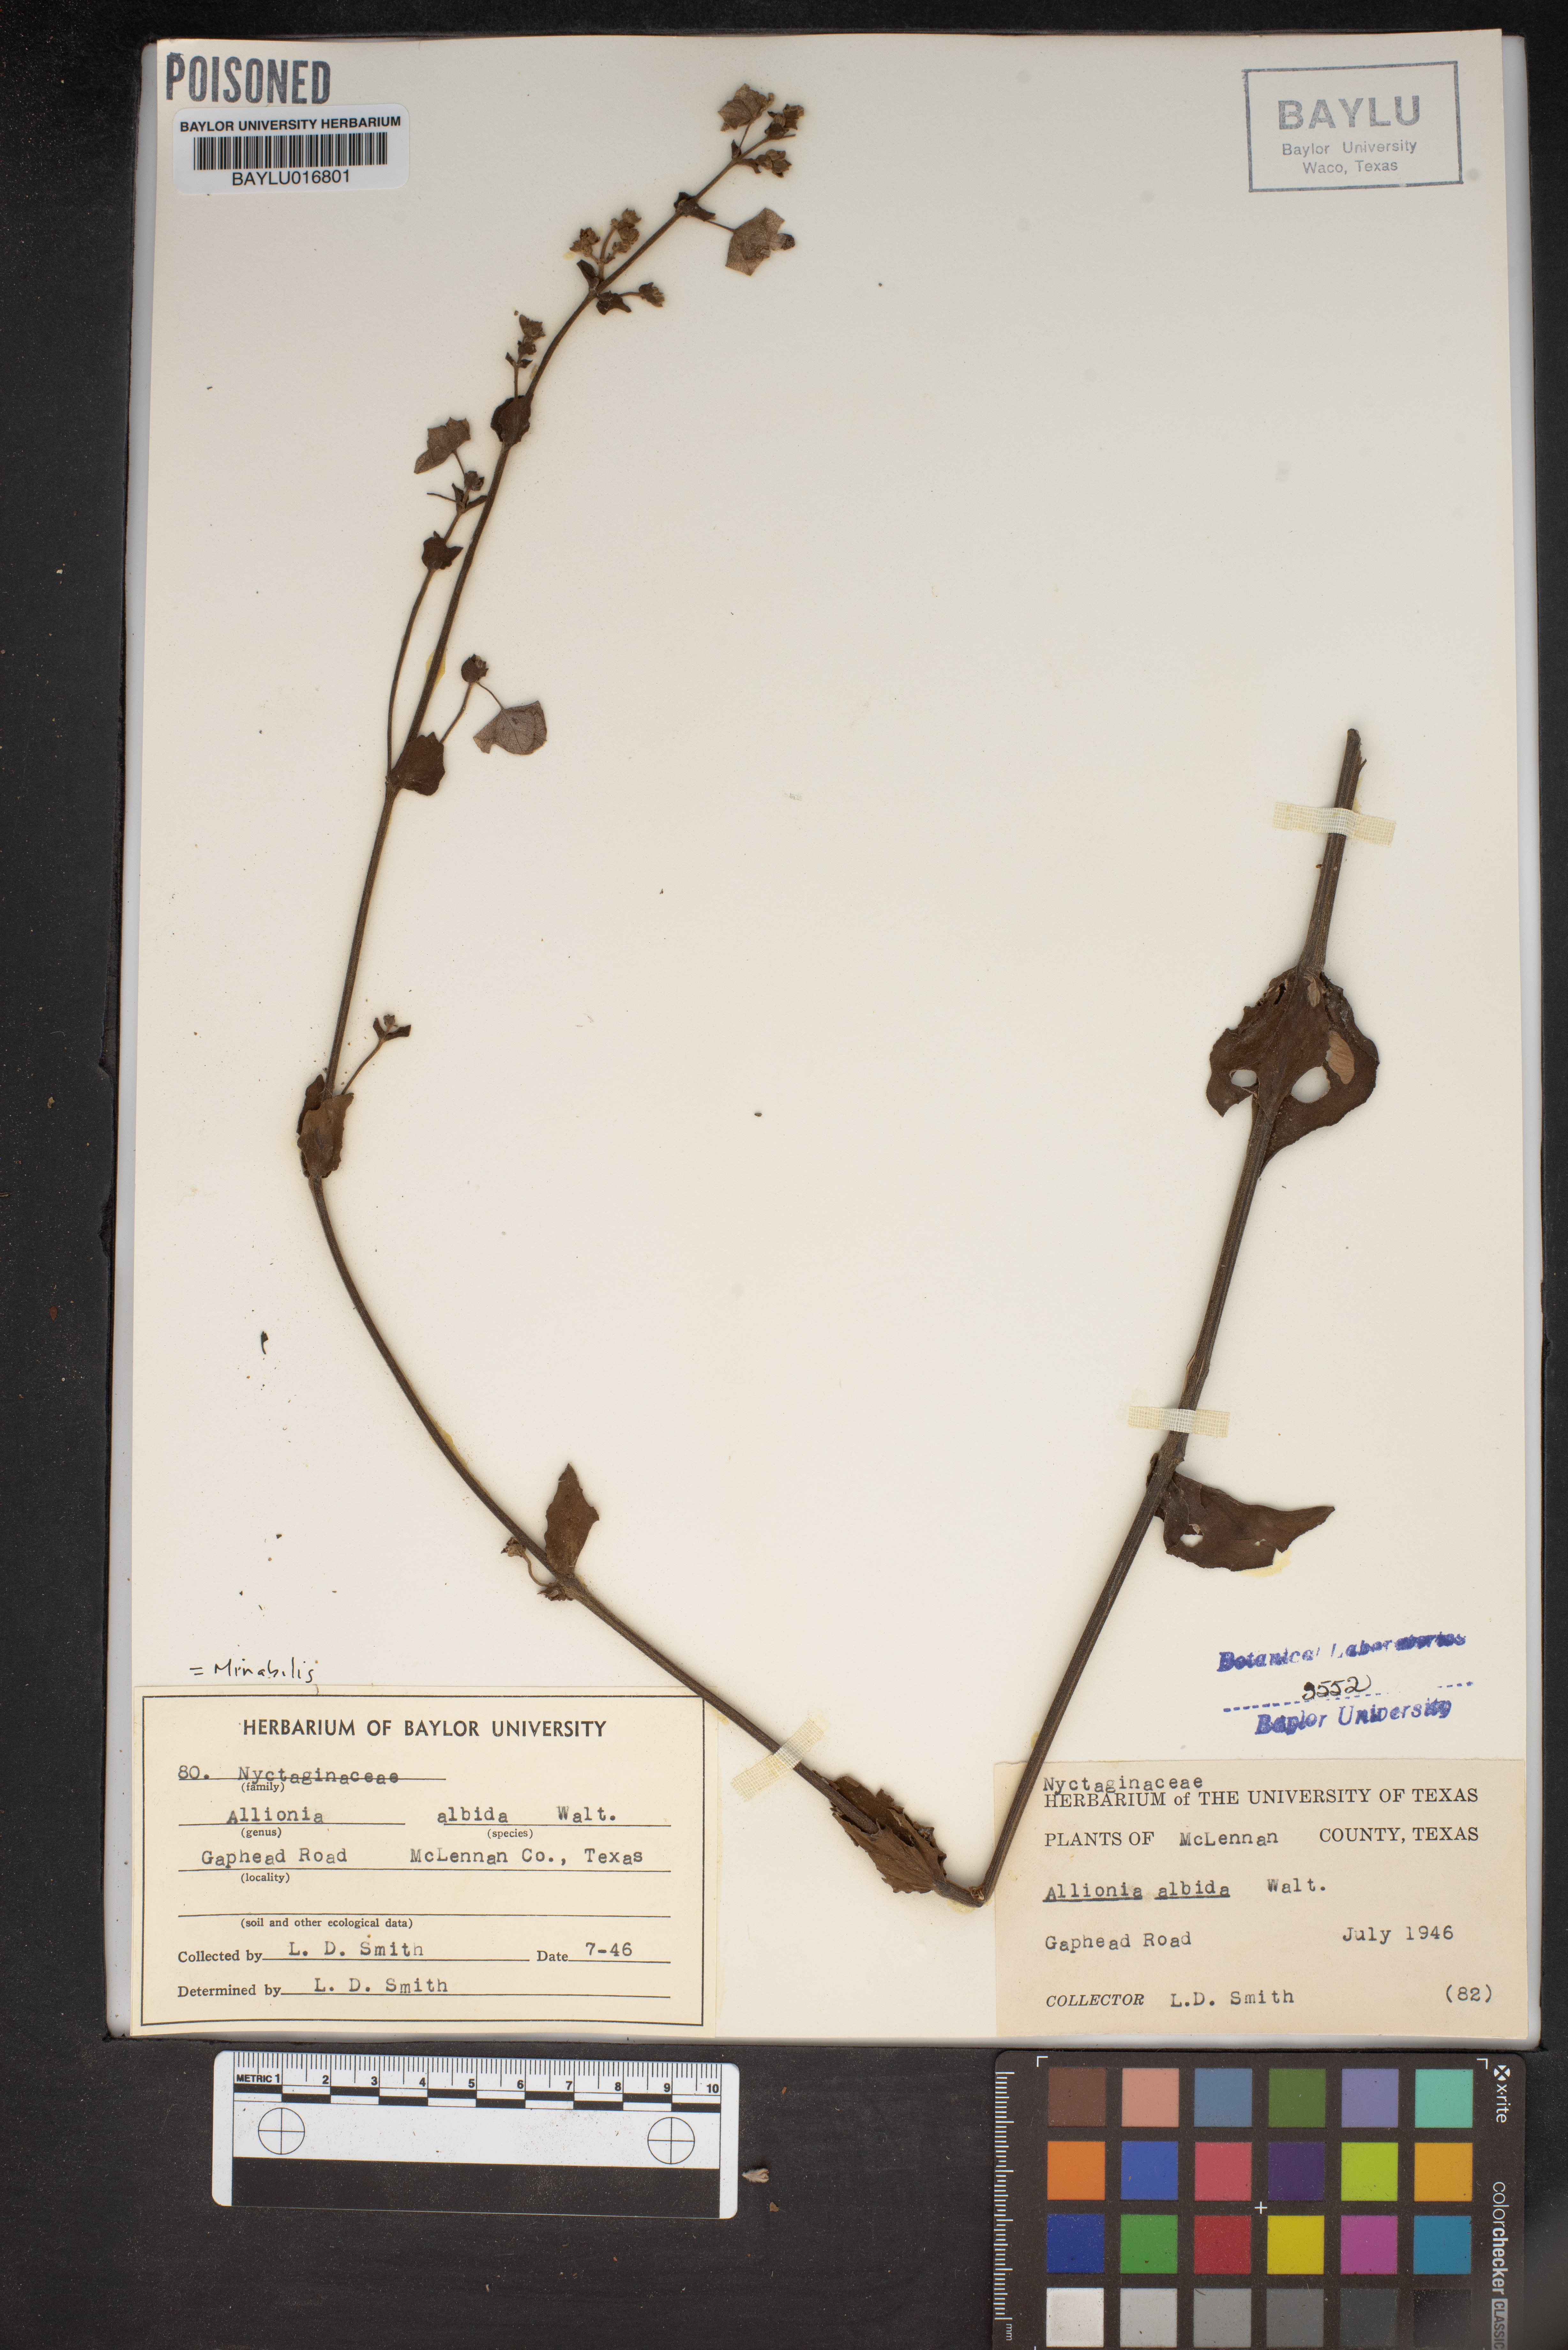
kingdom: Plantae
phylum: Tracheophyta
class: Magnoliopsida
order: Caryophyllales
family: Nyctaginaceae
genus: Mirabilis
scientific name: Mirabilis albida
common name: Hairy four-o'clock
